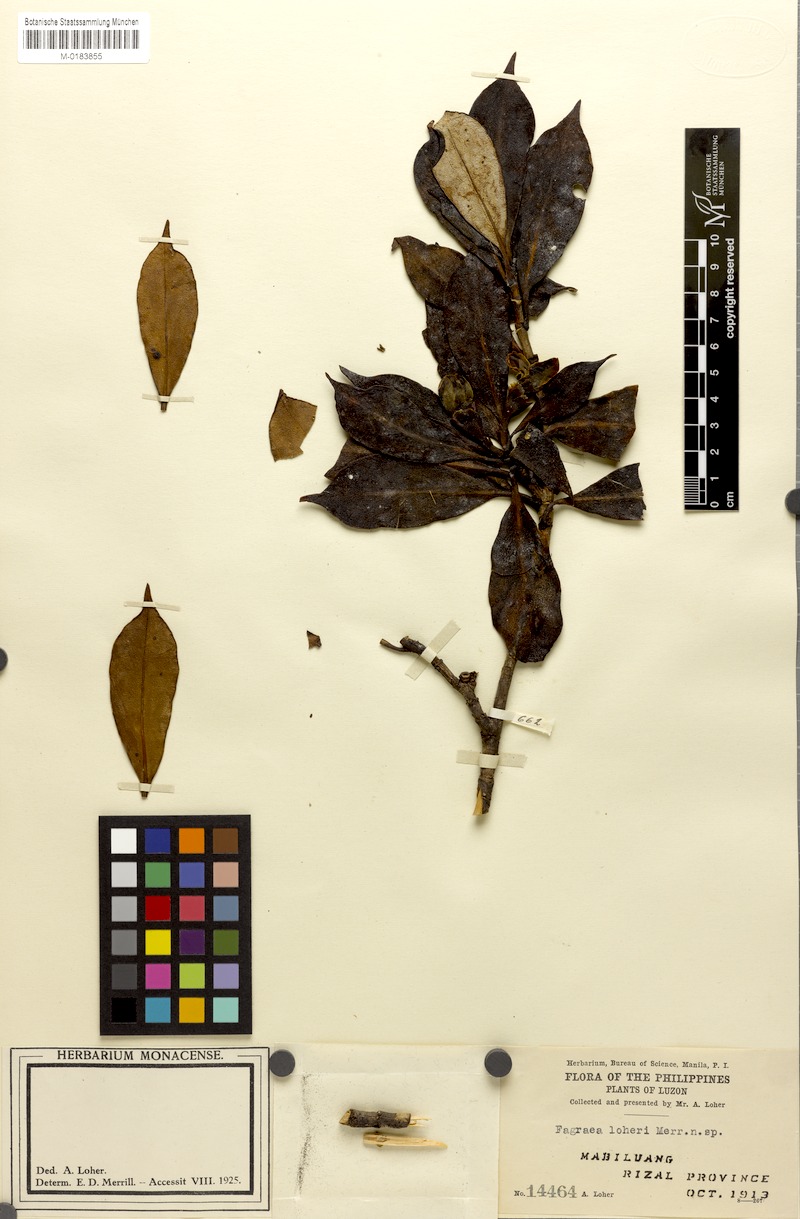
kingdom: Plantae
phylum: Tracheophyta
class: Magnoliopsida
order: Gentianales
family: Gentianaceae
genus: Fagraea
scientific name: Fagraea litoralis
